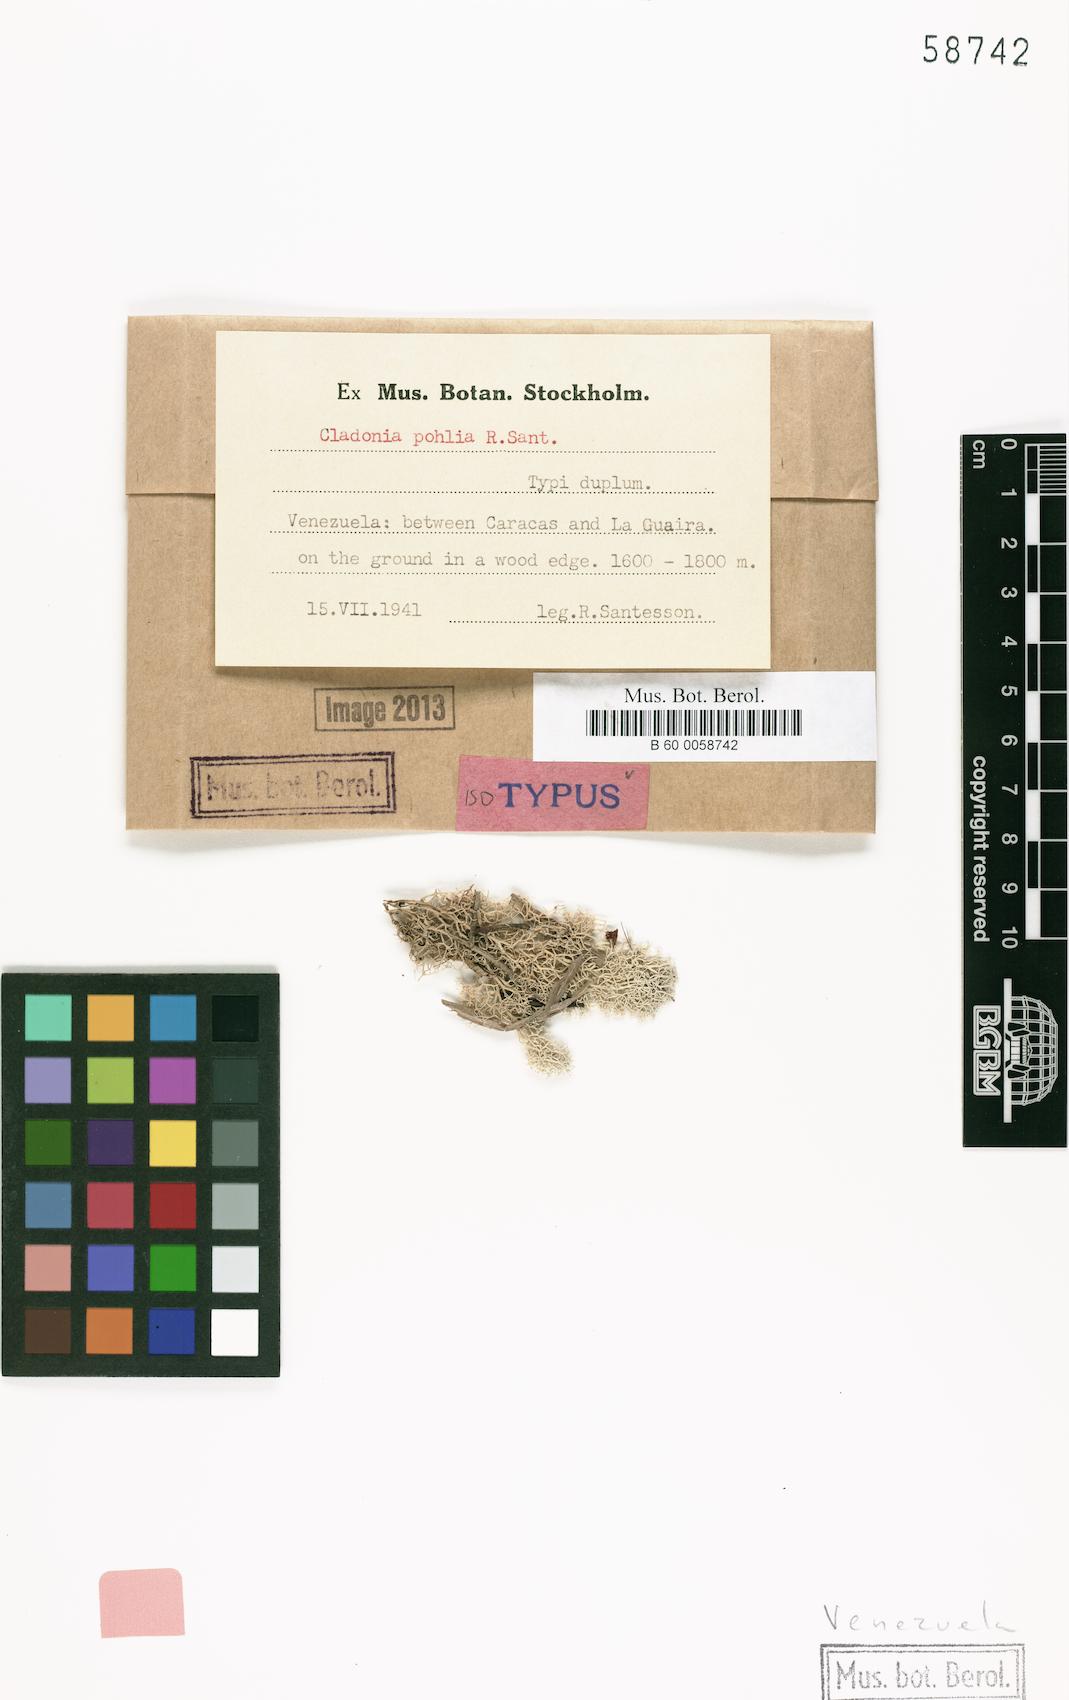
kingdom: Fungi
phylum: Ascomycota
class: Lecanoromycetes
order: Lecanorales
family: Cladoniaceae
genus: Cladonia
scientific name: Cladonia confusa
